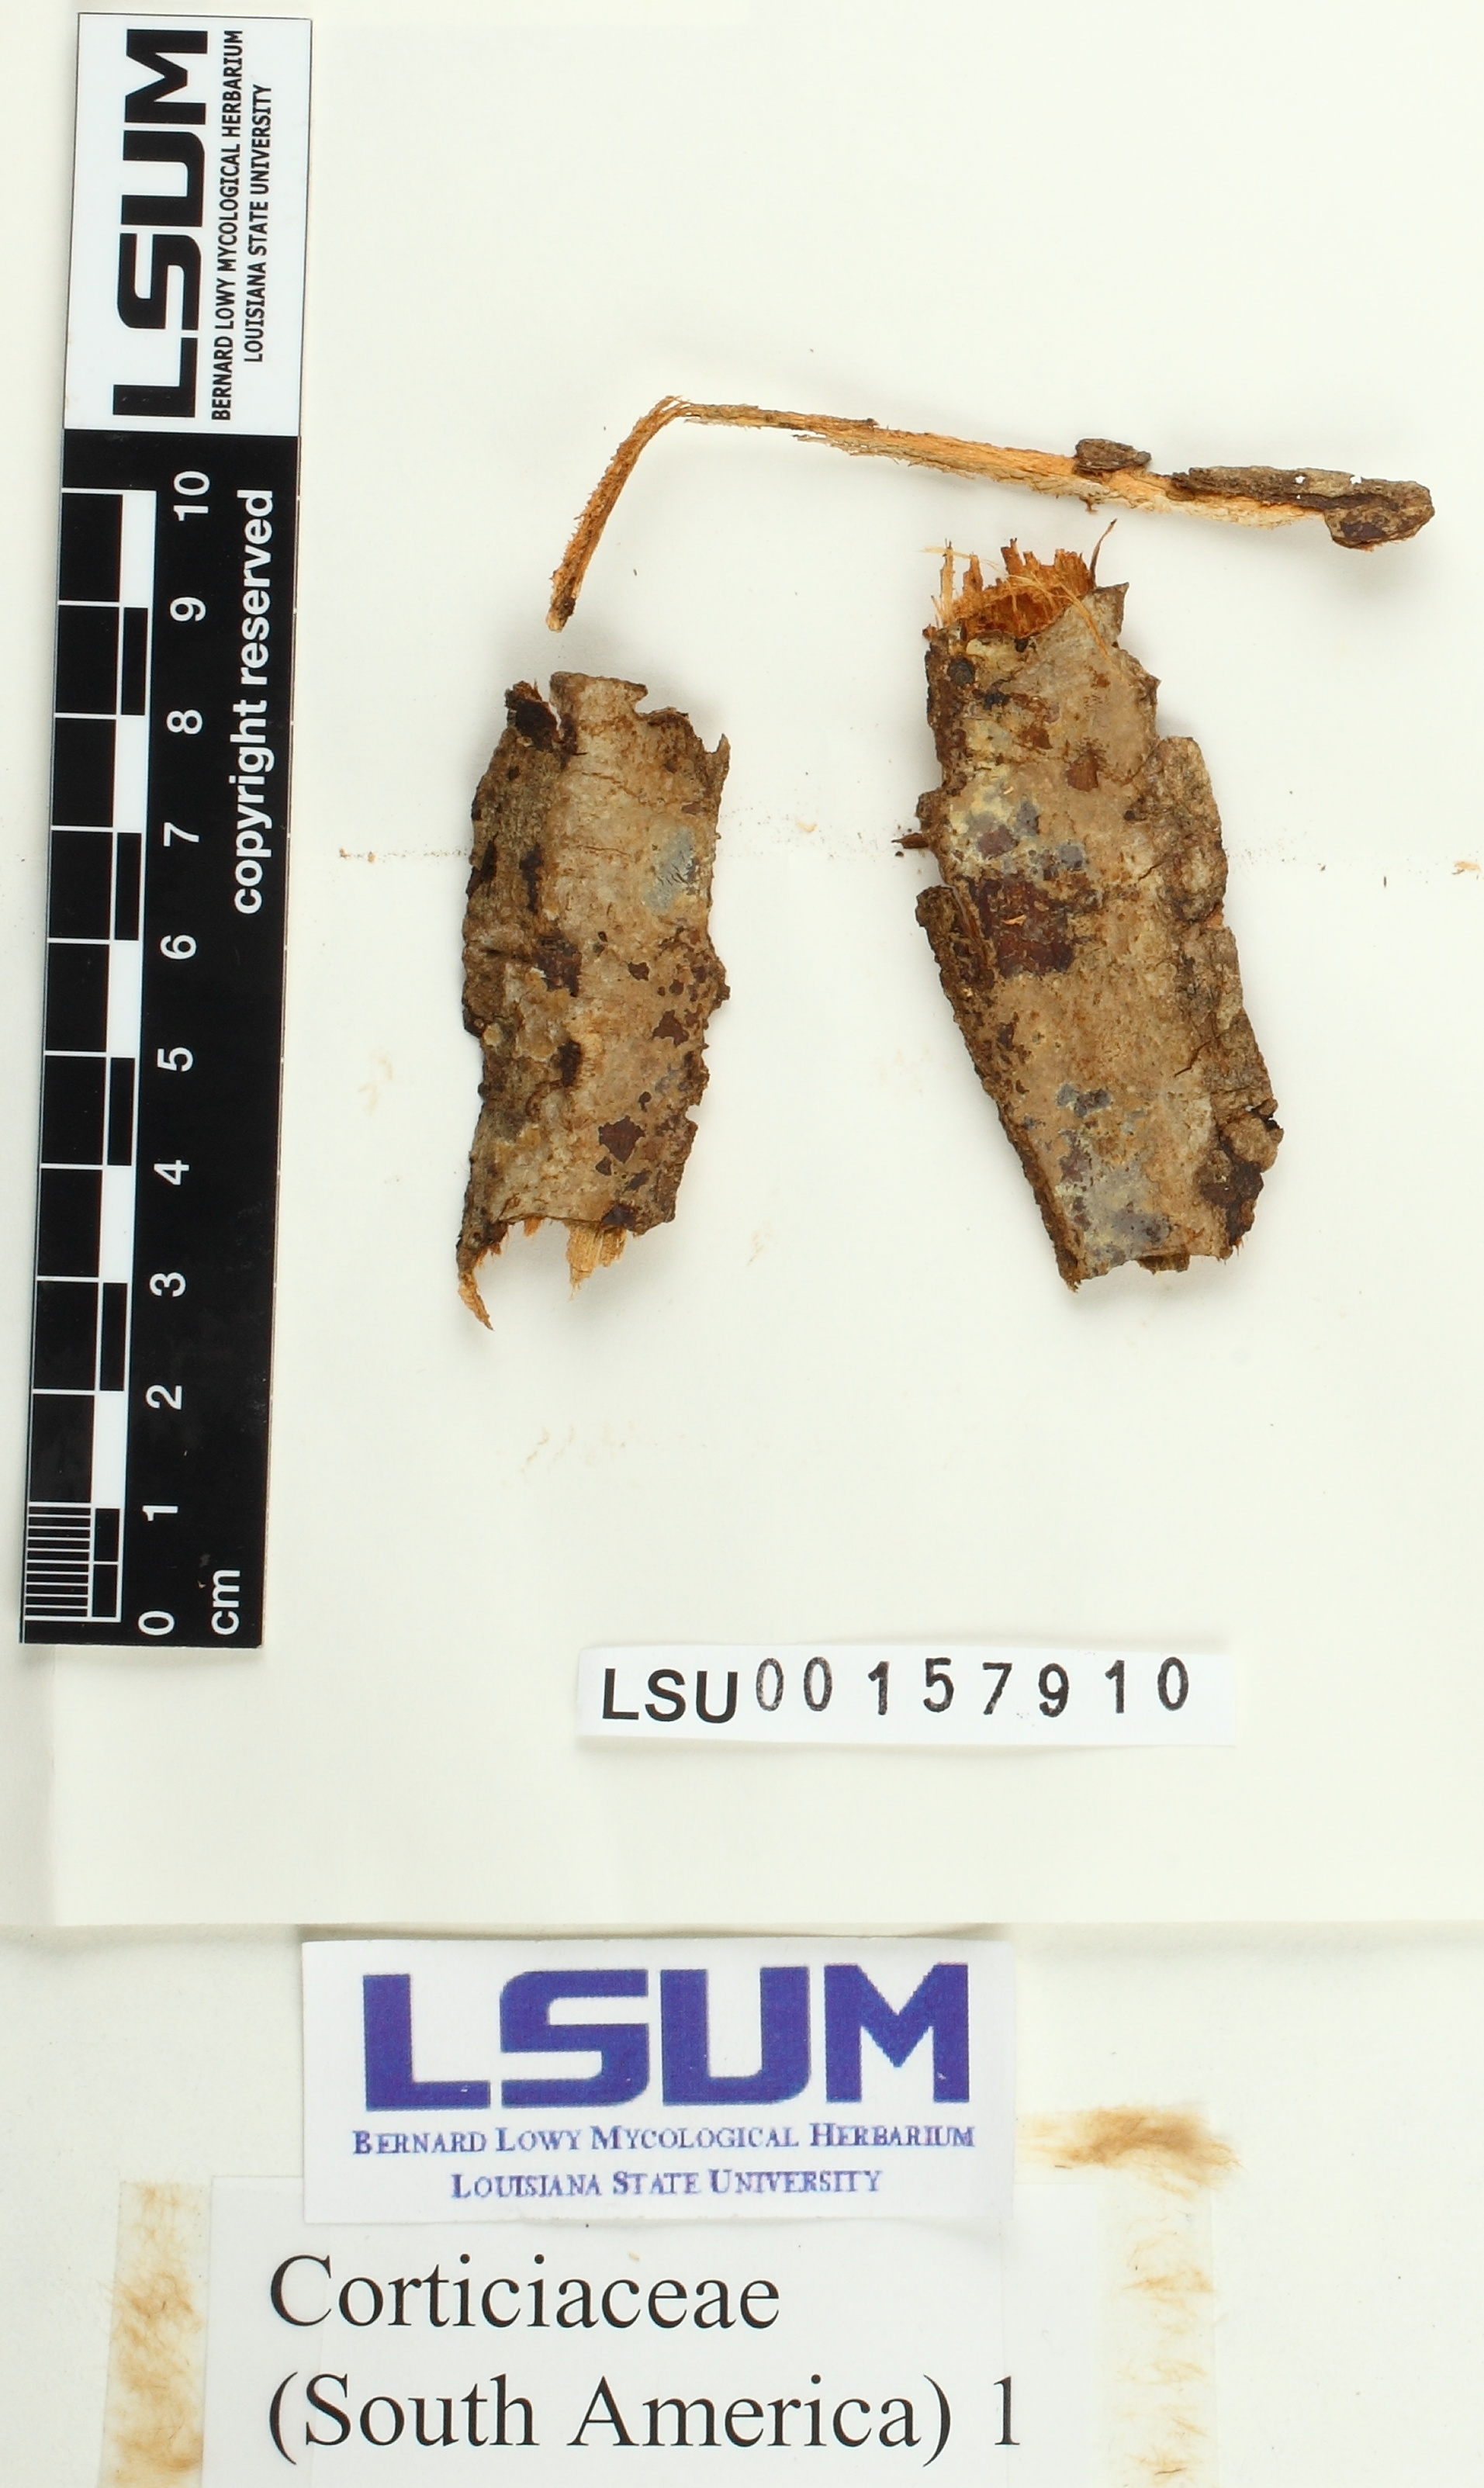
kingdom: Fungi
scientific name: Fungi
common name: Fungi
